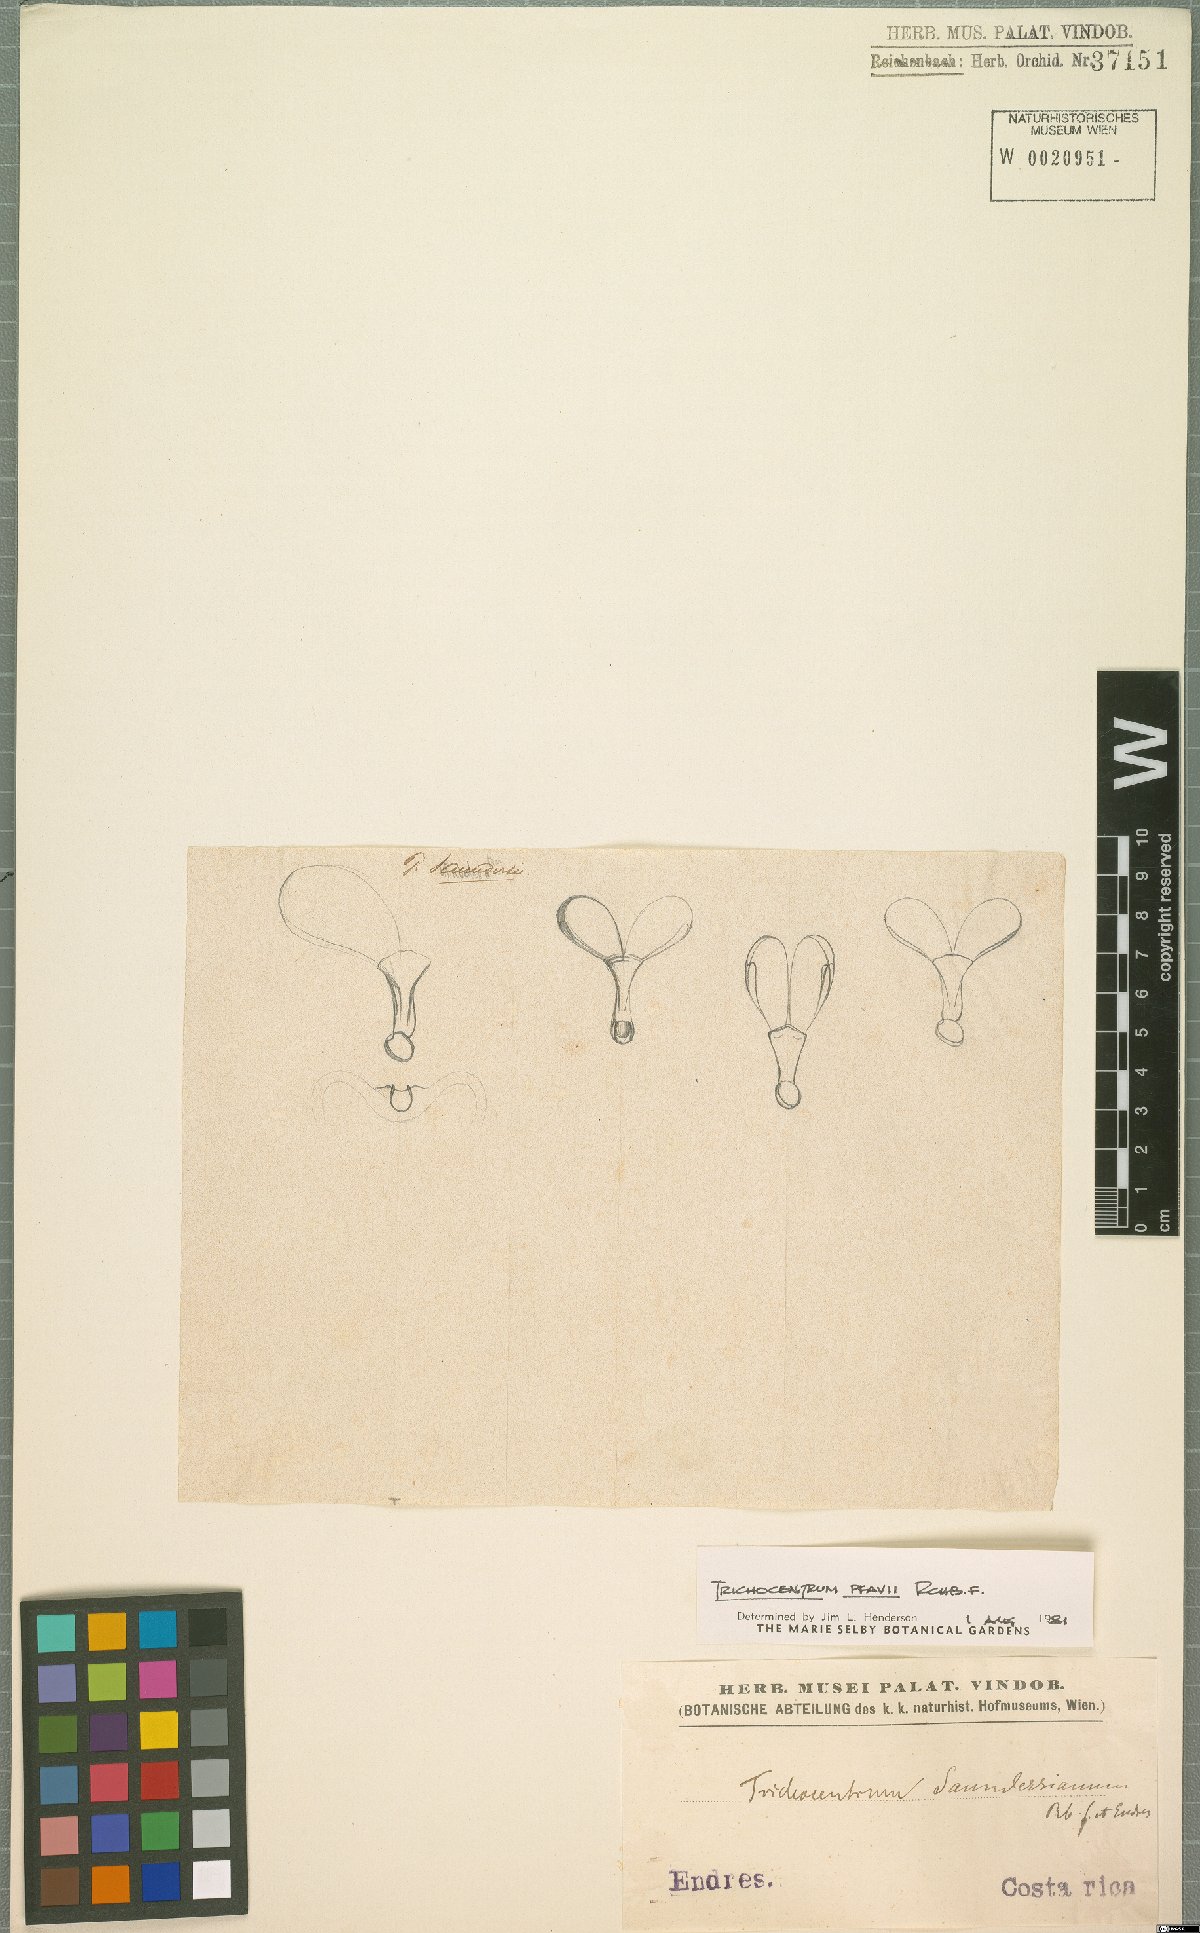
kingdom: Plantae
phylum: Tracheophyta
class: Liliopsida
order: Asparagales
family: Orchidaceae
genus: Trichocentrum
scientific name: Trichocentrum pfavii
